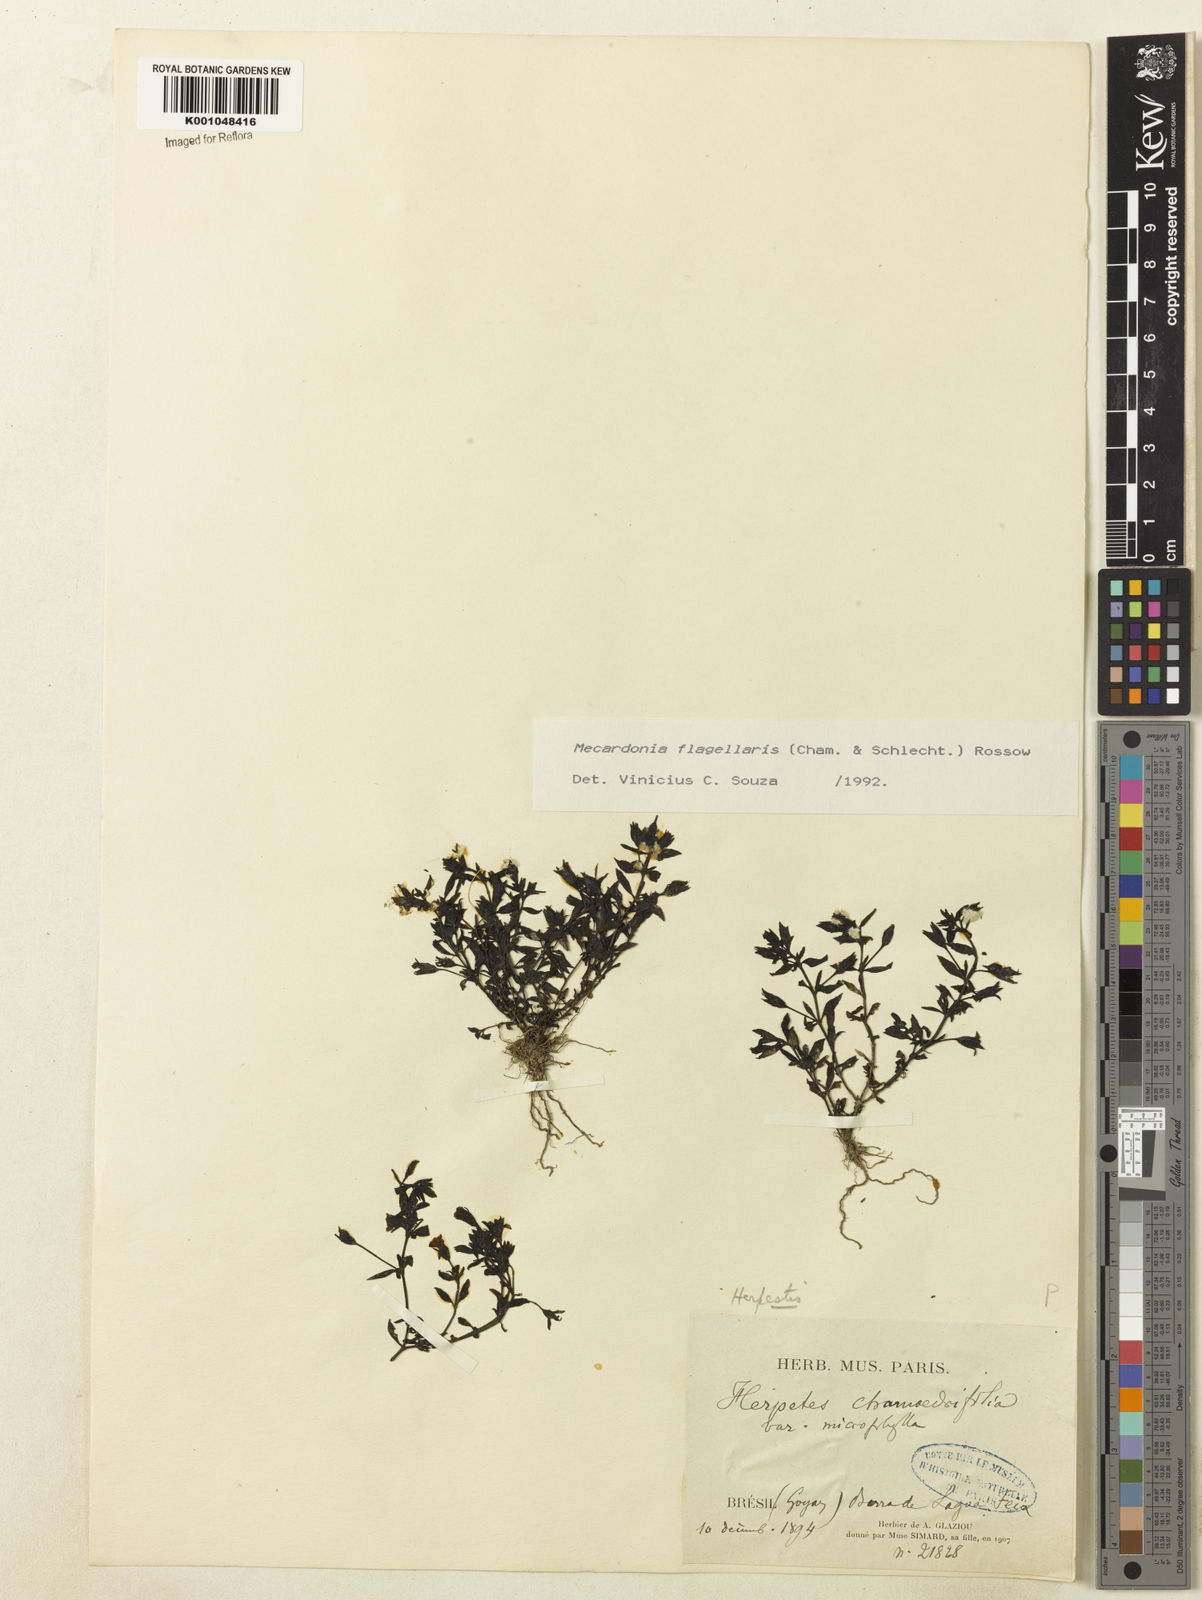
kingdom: Plantae
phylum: Tracheophyta
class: Magnoliopsida
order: Lamiales
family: Plantaginaceae
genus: Mecardonia
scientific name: Mecardonia flagellaris
